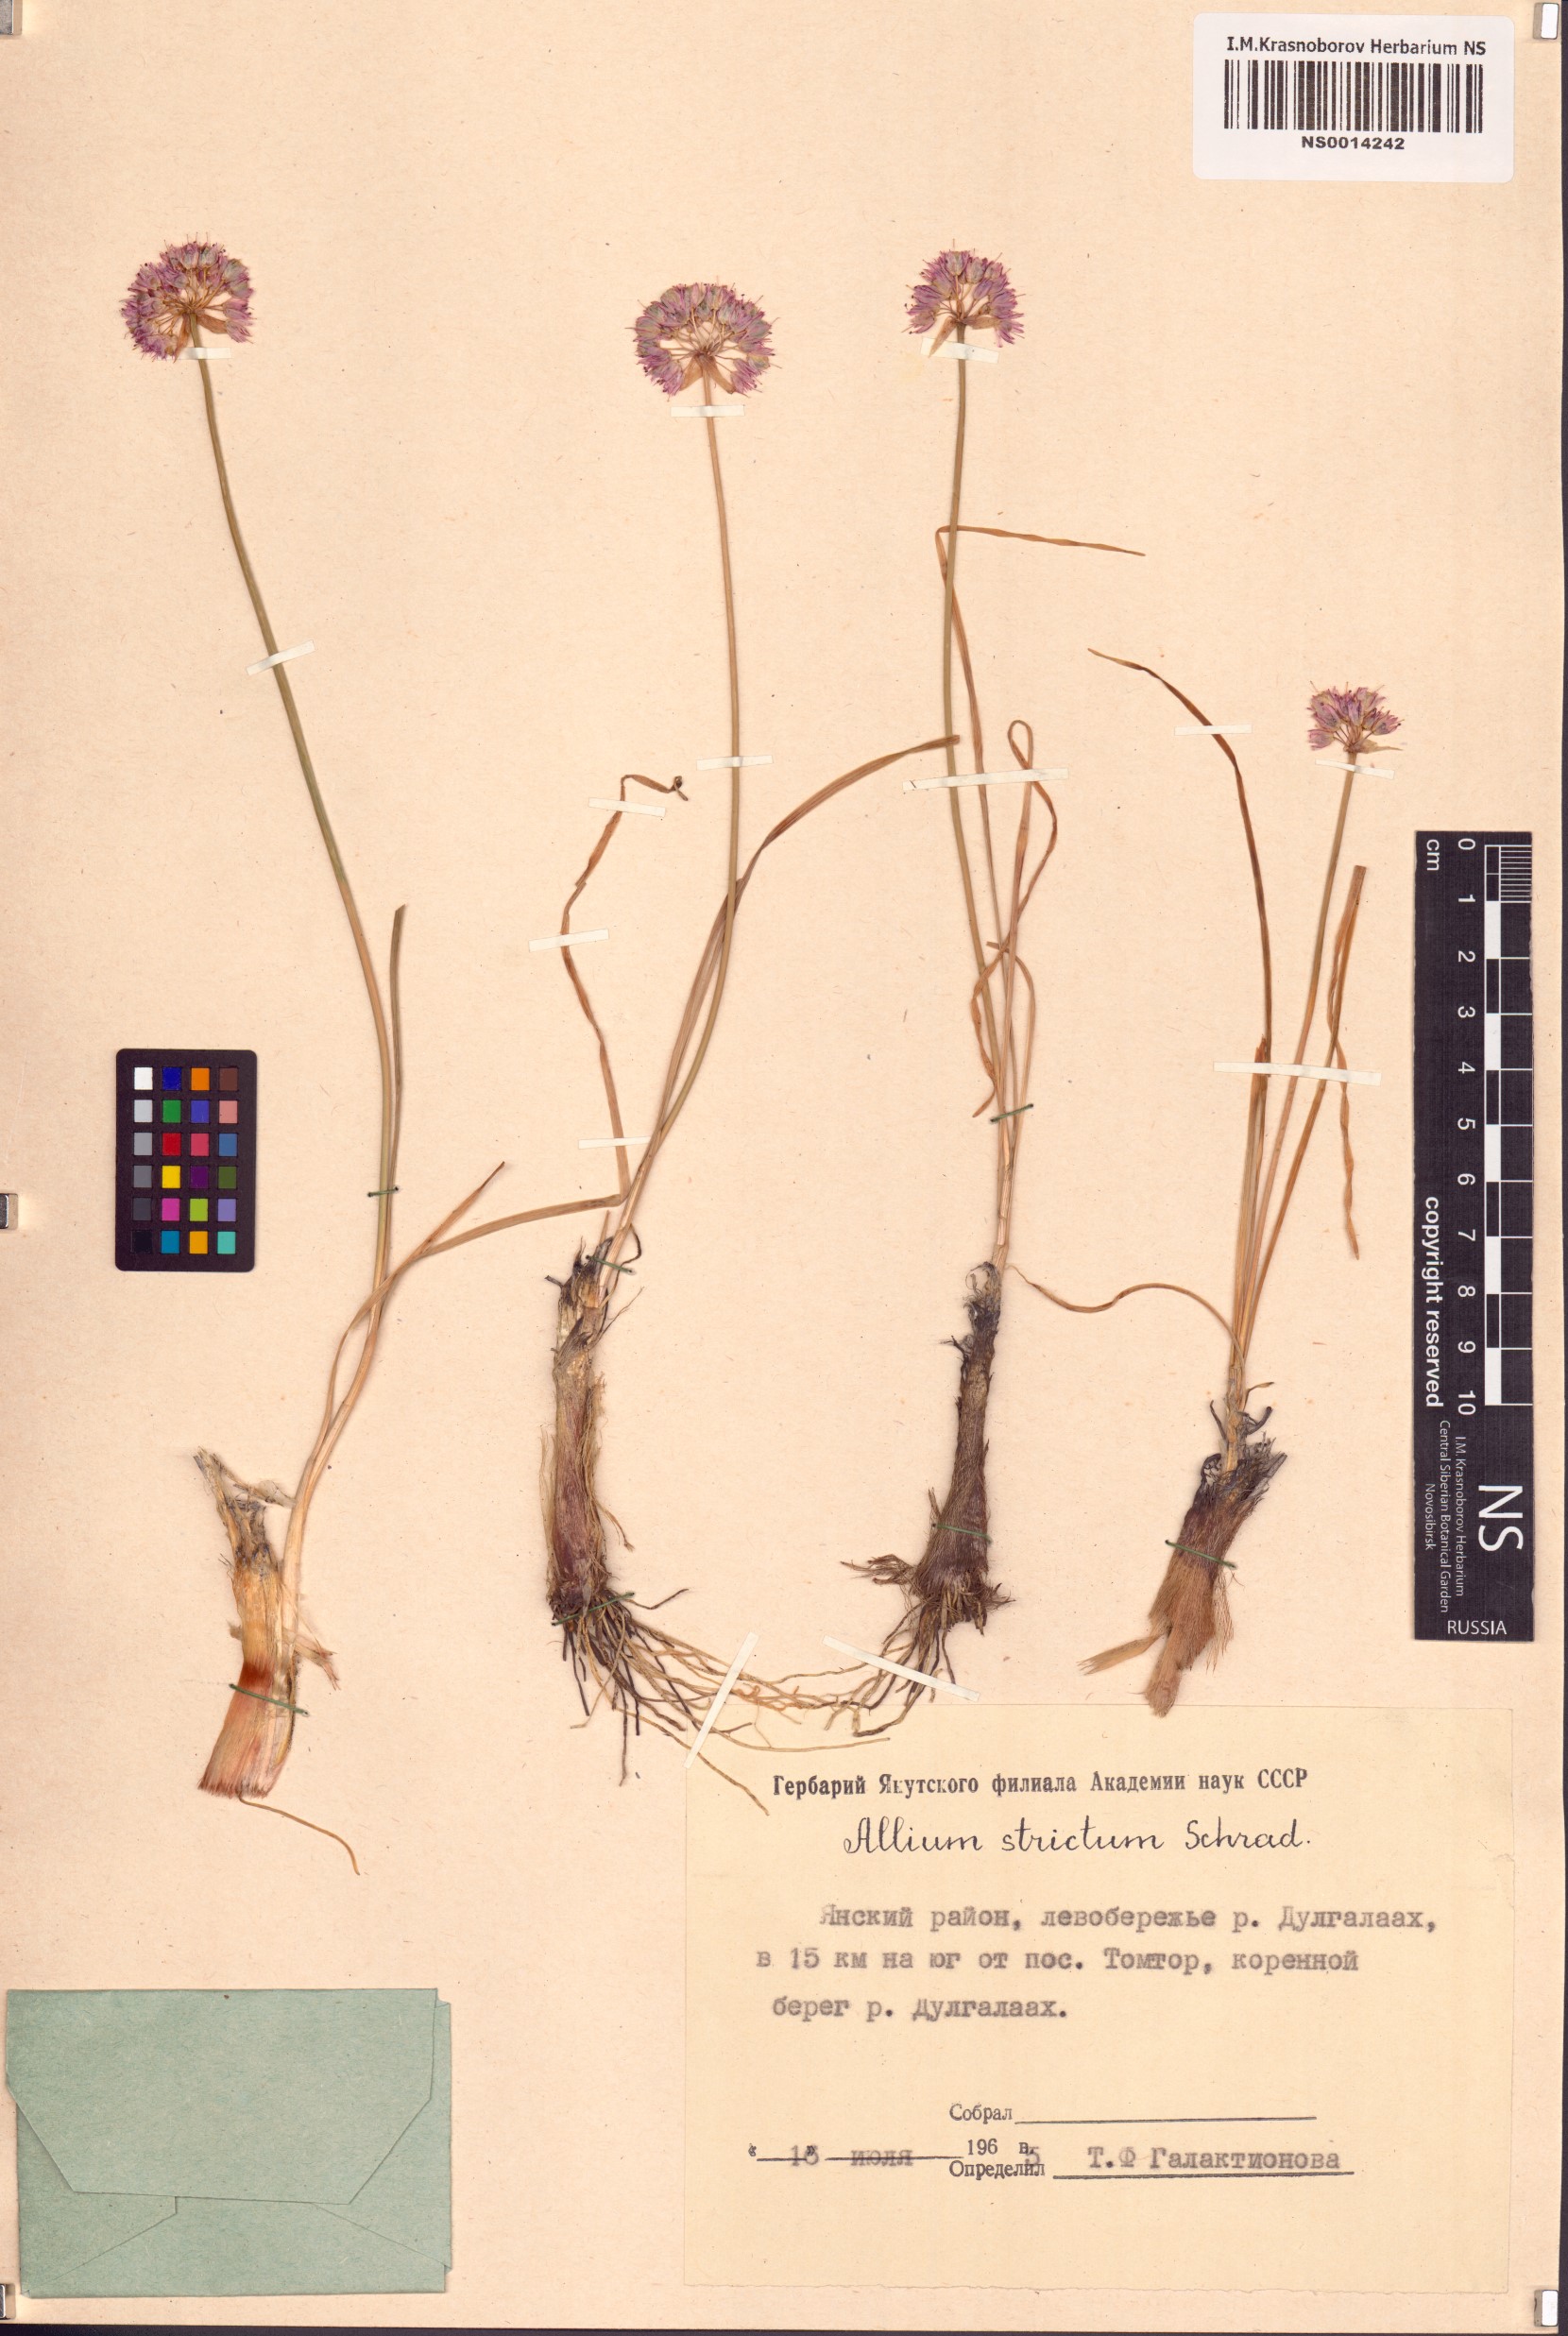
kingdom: Plantae
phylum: Tracheophyta
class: Liliopsida
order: Asparagales
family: Amaryllidaceae
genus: Allium
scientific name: Allium strictum
